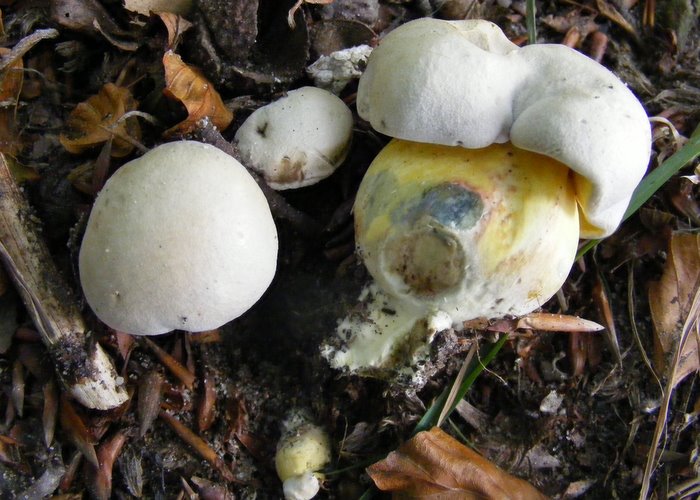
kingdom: Fungi
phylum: Basidiomycota
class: Agaricomycetes
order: Boletales
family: Boletaceae
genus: Caloboletus
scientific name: Caloboletus radicans
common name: rod-rørhat
